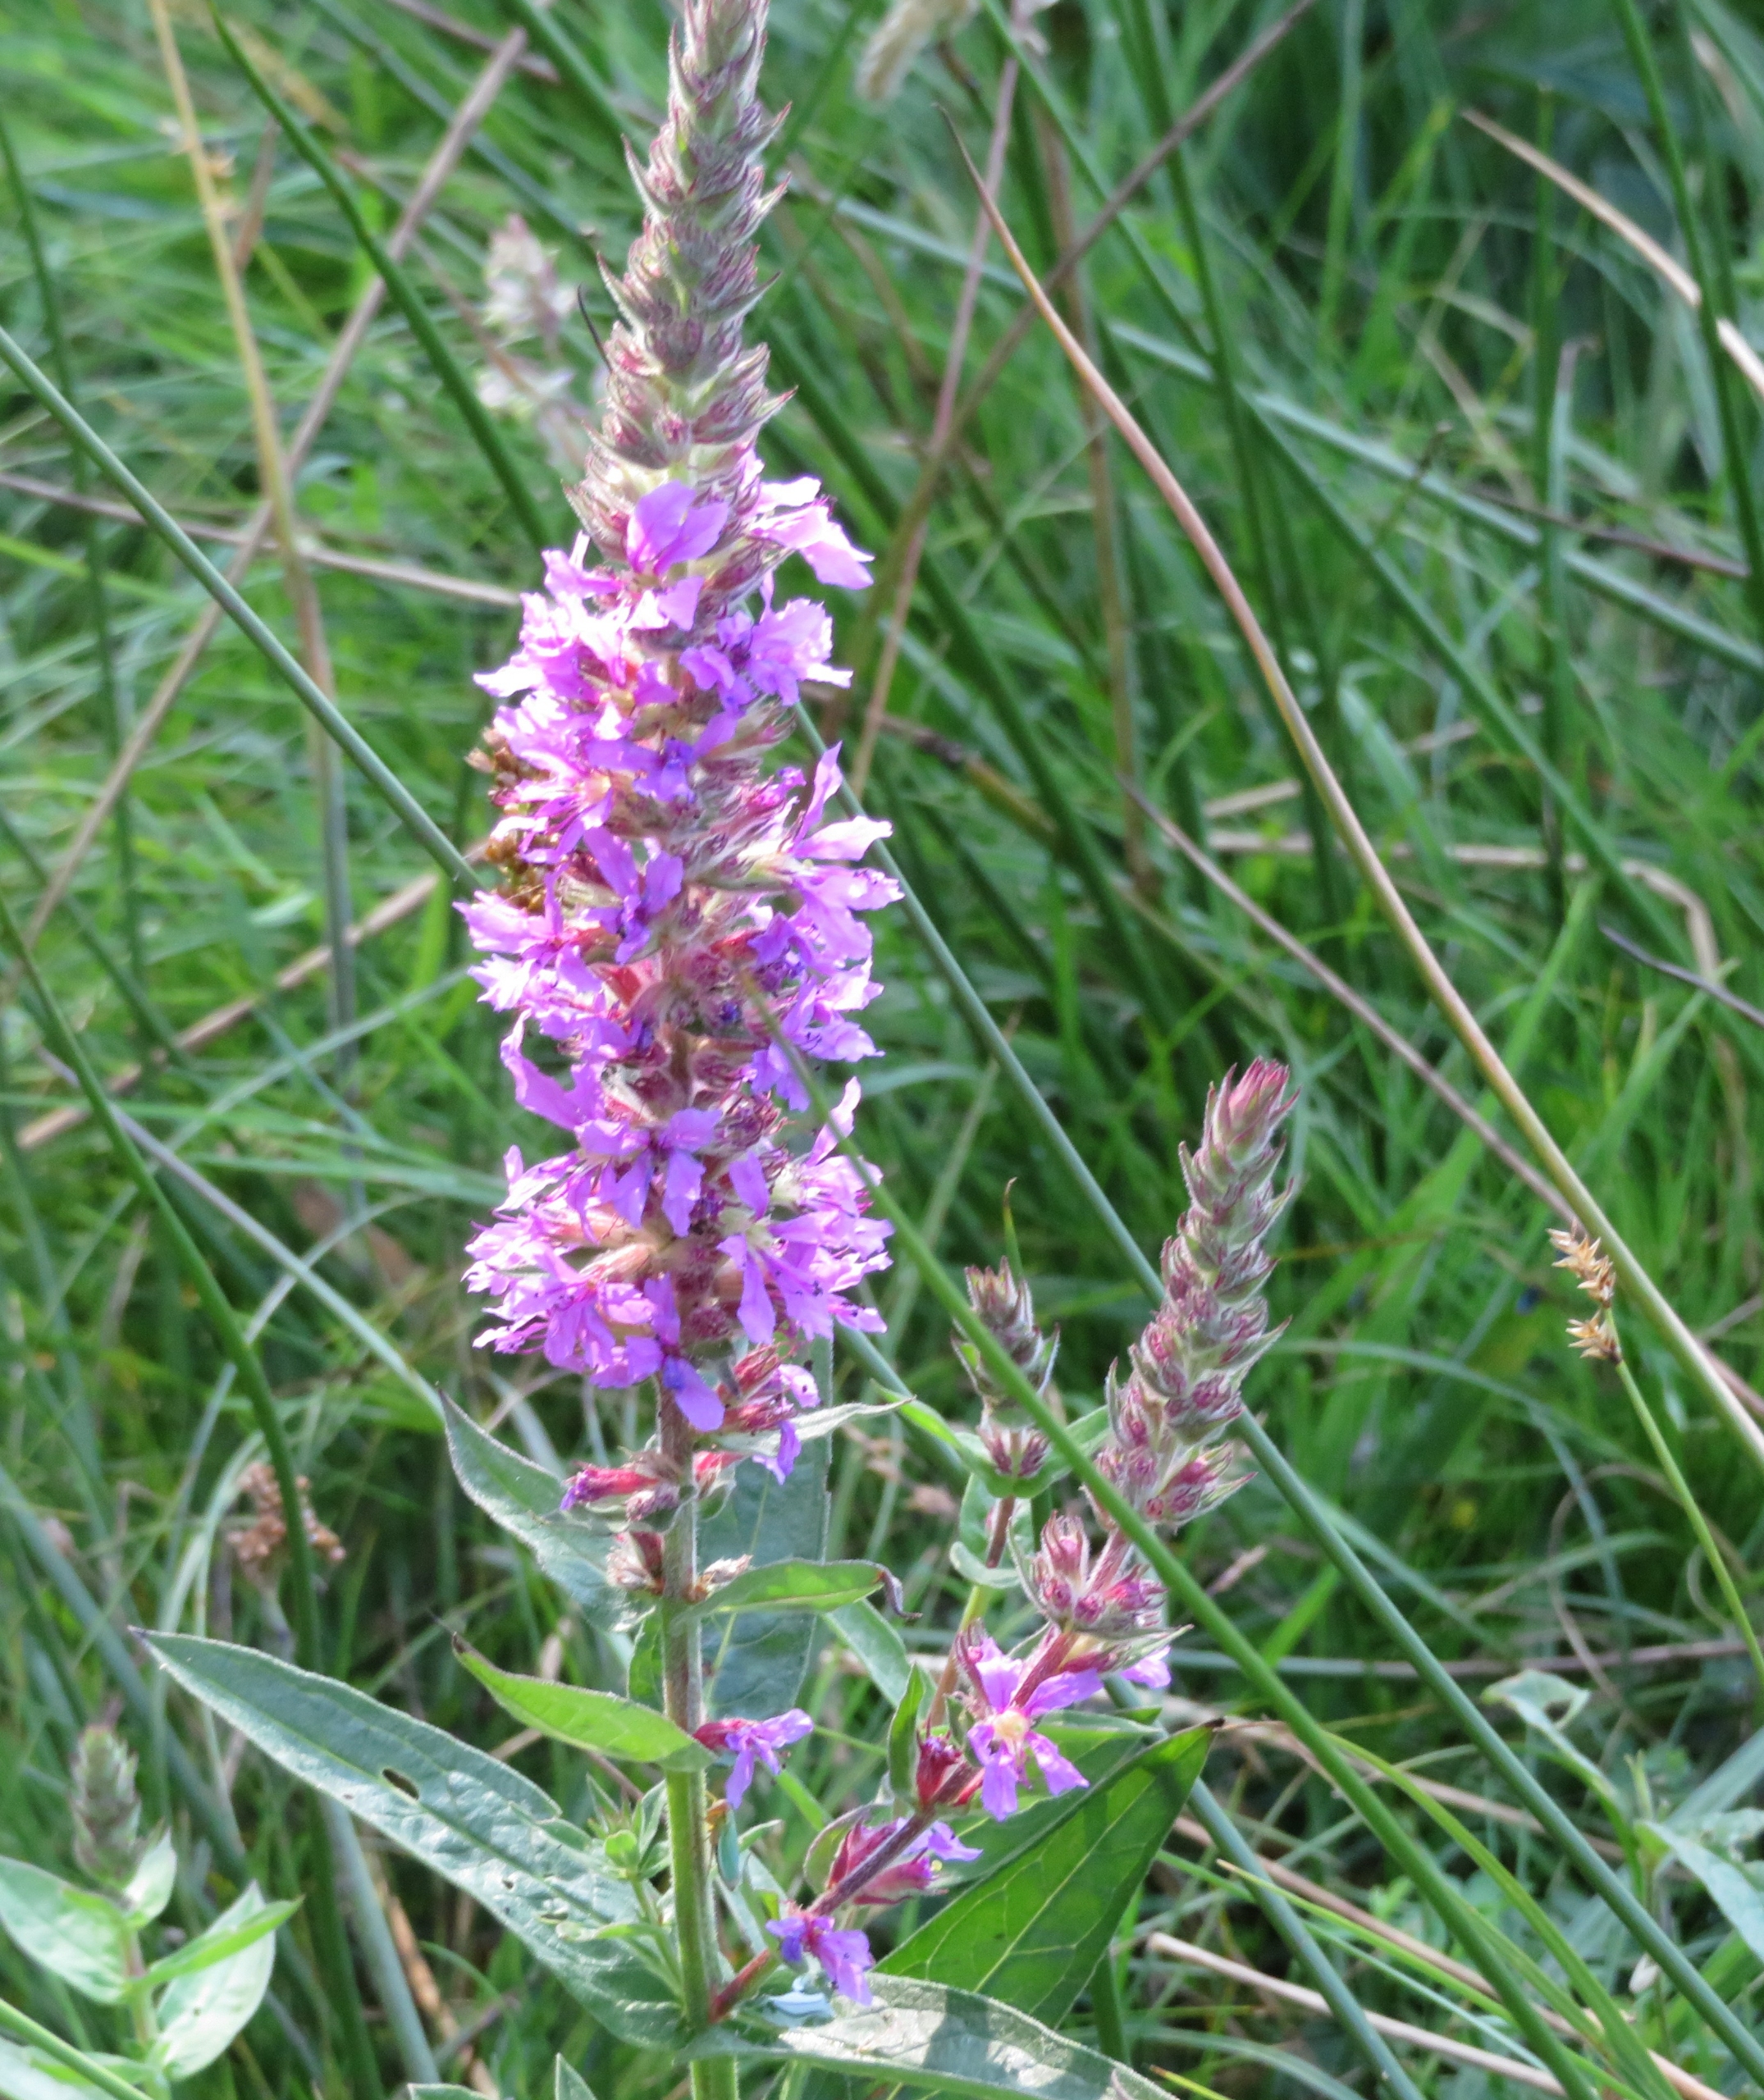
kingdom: Plantae
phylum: Tracheophyta
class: Magnoliopsida
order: Myrtales
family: Lythraceae
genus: Lythrum
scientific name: Lythrum salicaria
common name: Kattehale
